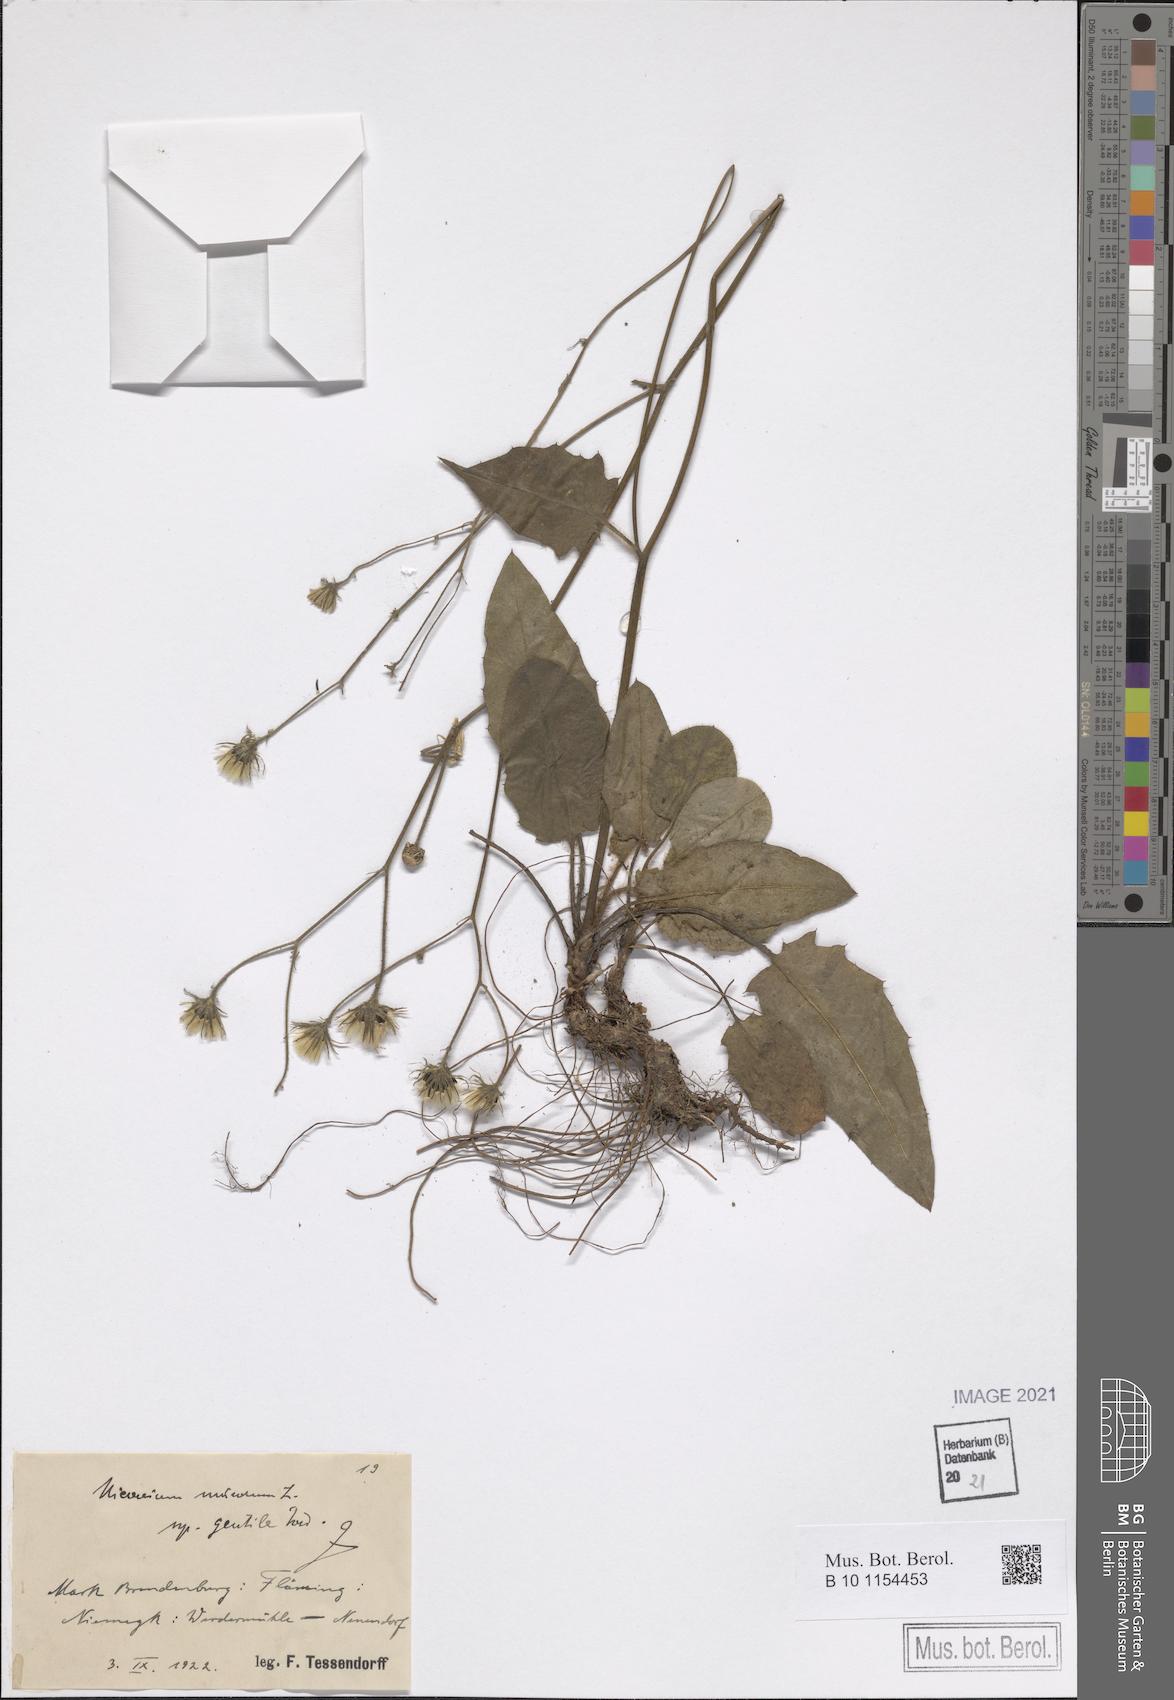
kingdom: Plantae
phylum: Tracheophyta
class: Magnoliopsida
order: Asterales
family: Asteraceae
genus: Hieracium
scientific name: Hieracium murorum
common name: Wall hawkweed
